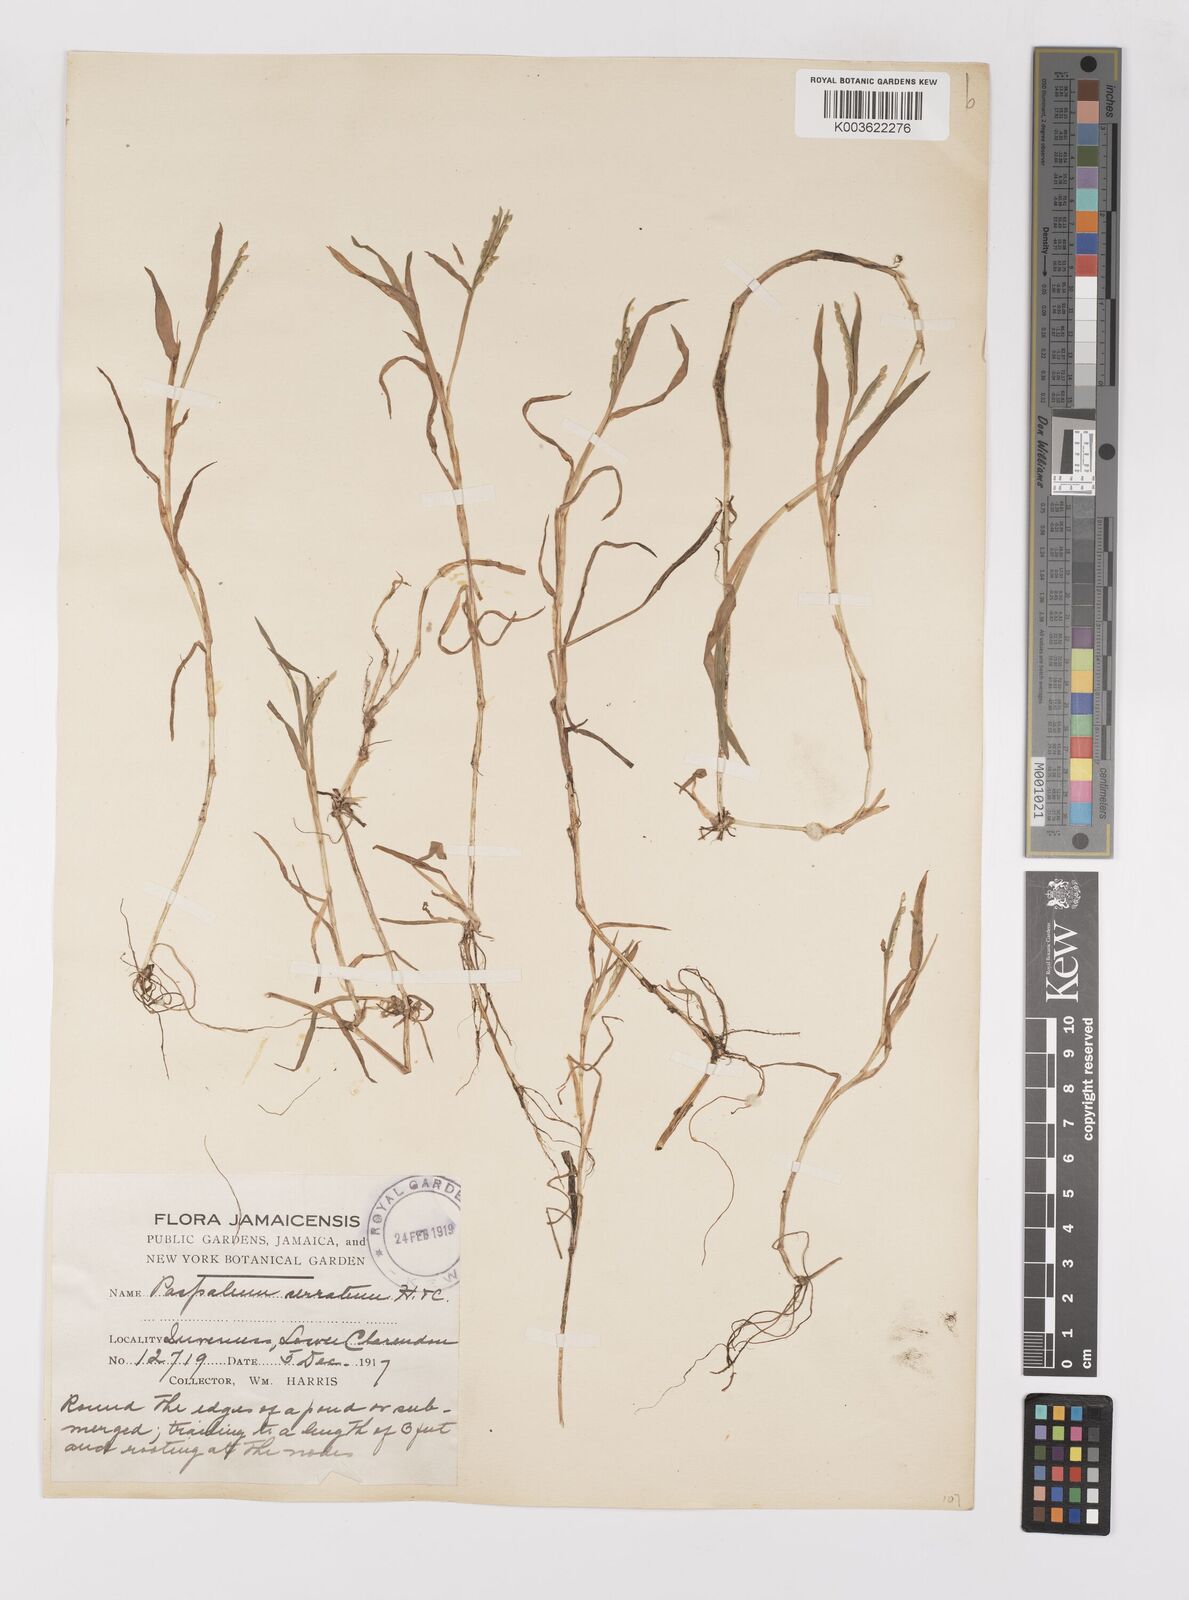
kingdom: Plantae
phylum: Tracheophyta
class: Liliopsida
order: Poales
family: Poaceae
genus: Paspalum
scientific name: Paspalum acuminatum
